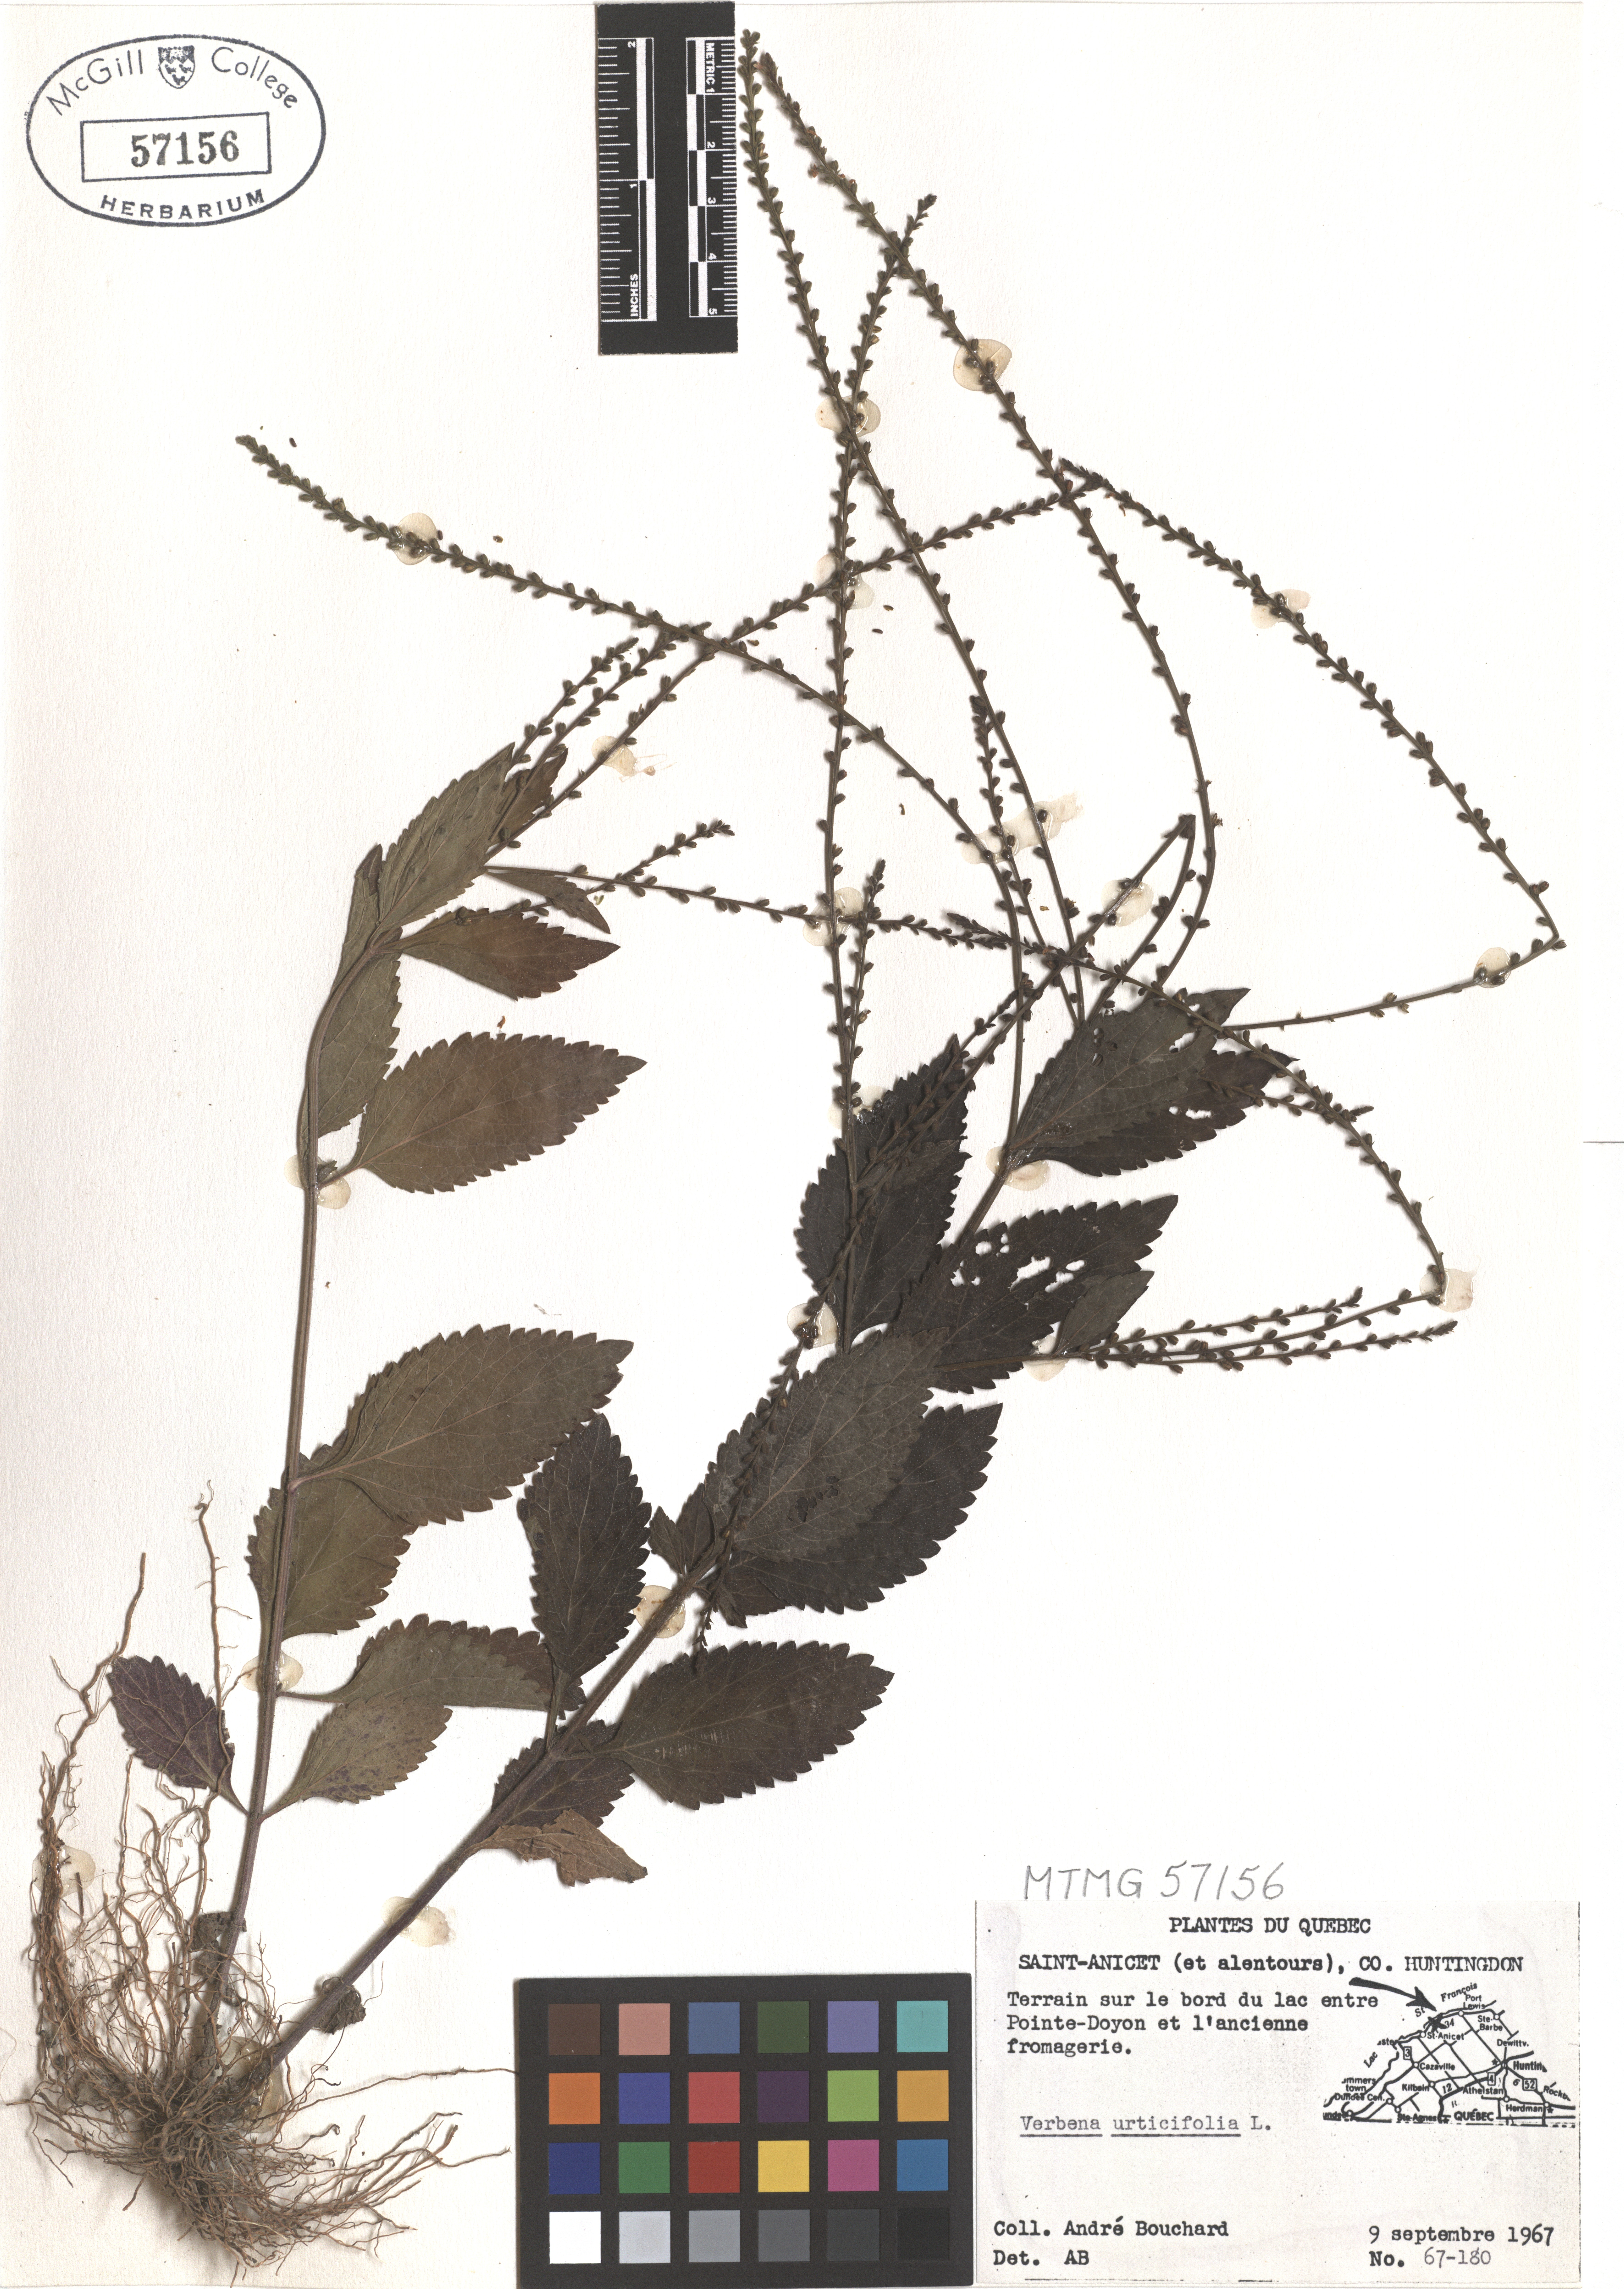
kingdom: Plantae
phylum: Tracheophyta
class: Magnoliopsida
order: Lamiales
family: Verbenaceae
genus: Verbena
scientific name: Verbena urticifolia
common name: Nettle-leaved vervain
